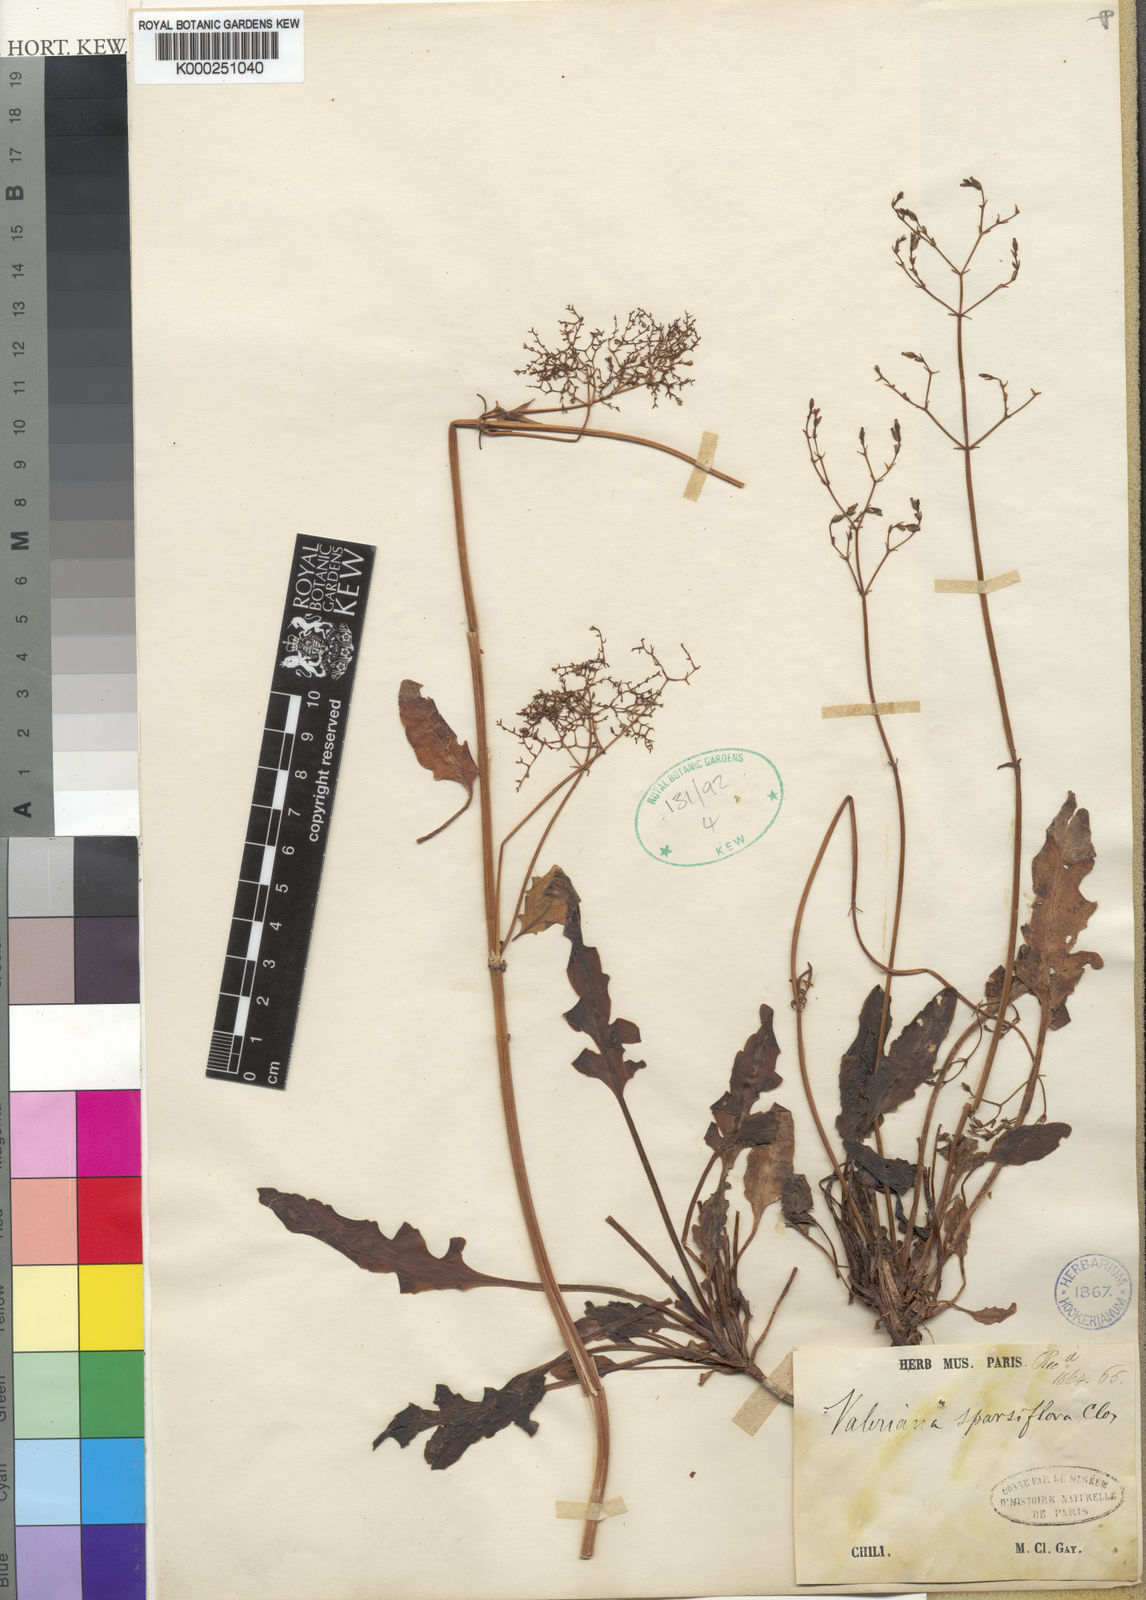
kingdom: Plantae
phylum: Tracheophyta
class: Magnoliopsida
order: Dipsacales
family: Caprifoliaceae
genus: Valeriana
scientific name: Valeriana laxiflora
